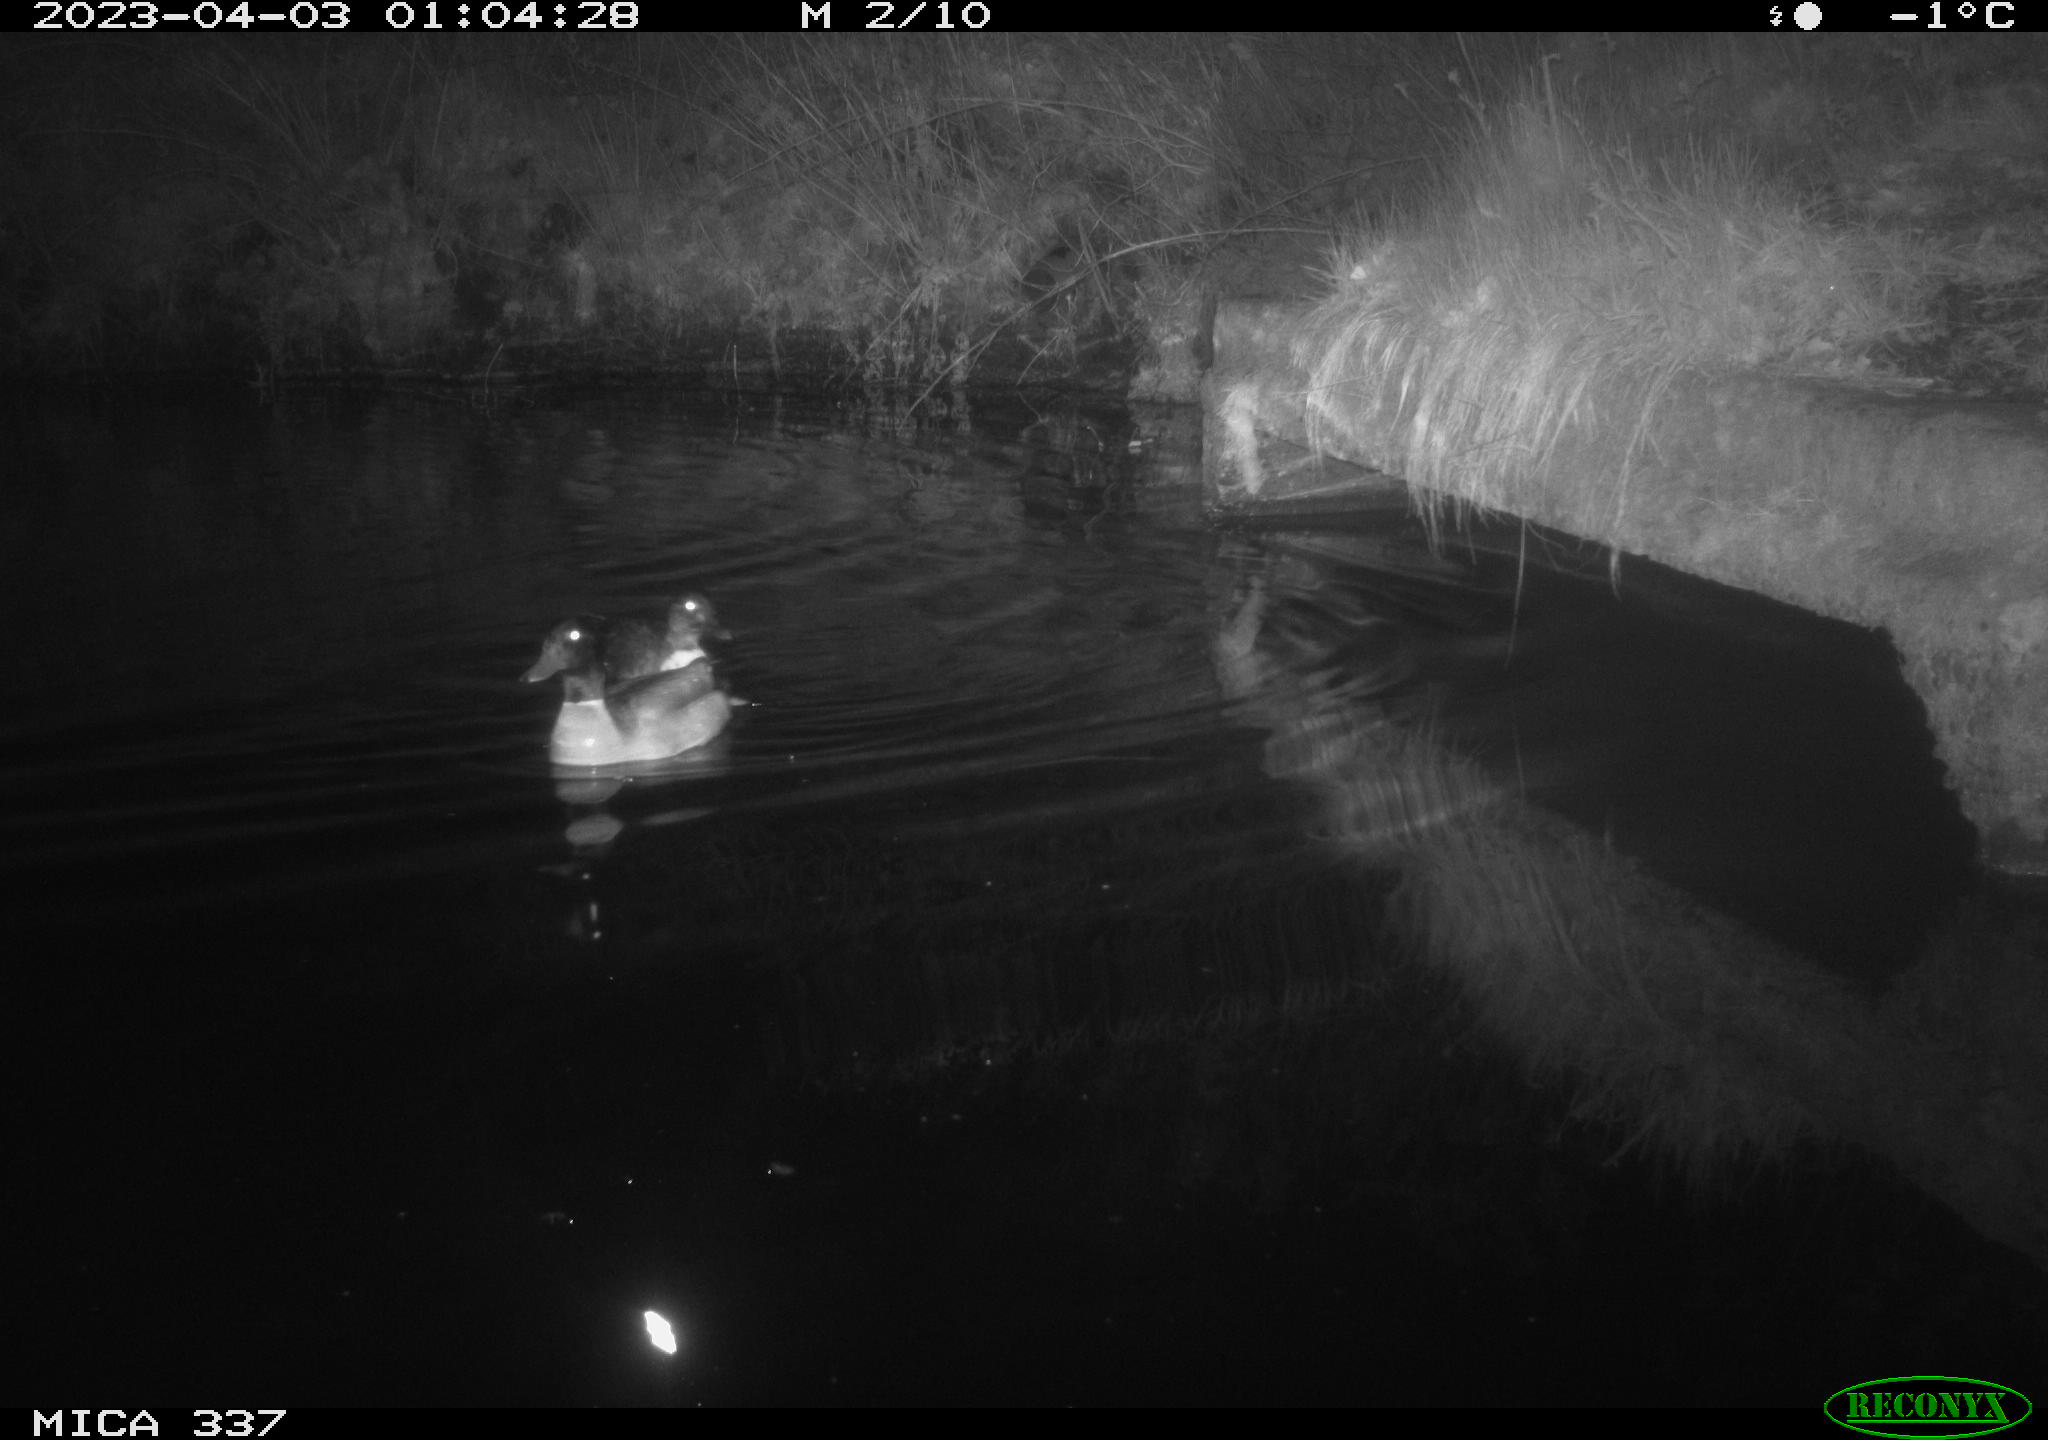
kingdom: Animalia
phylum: Chordata
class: Aves
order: Anseriformes
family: Anatidae
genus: Anas
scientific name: Anas platyrhynchos
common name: Mallard
